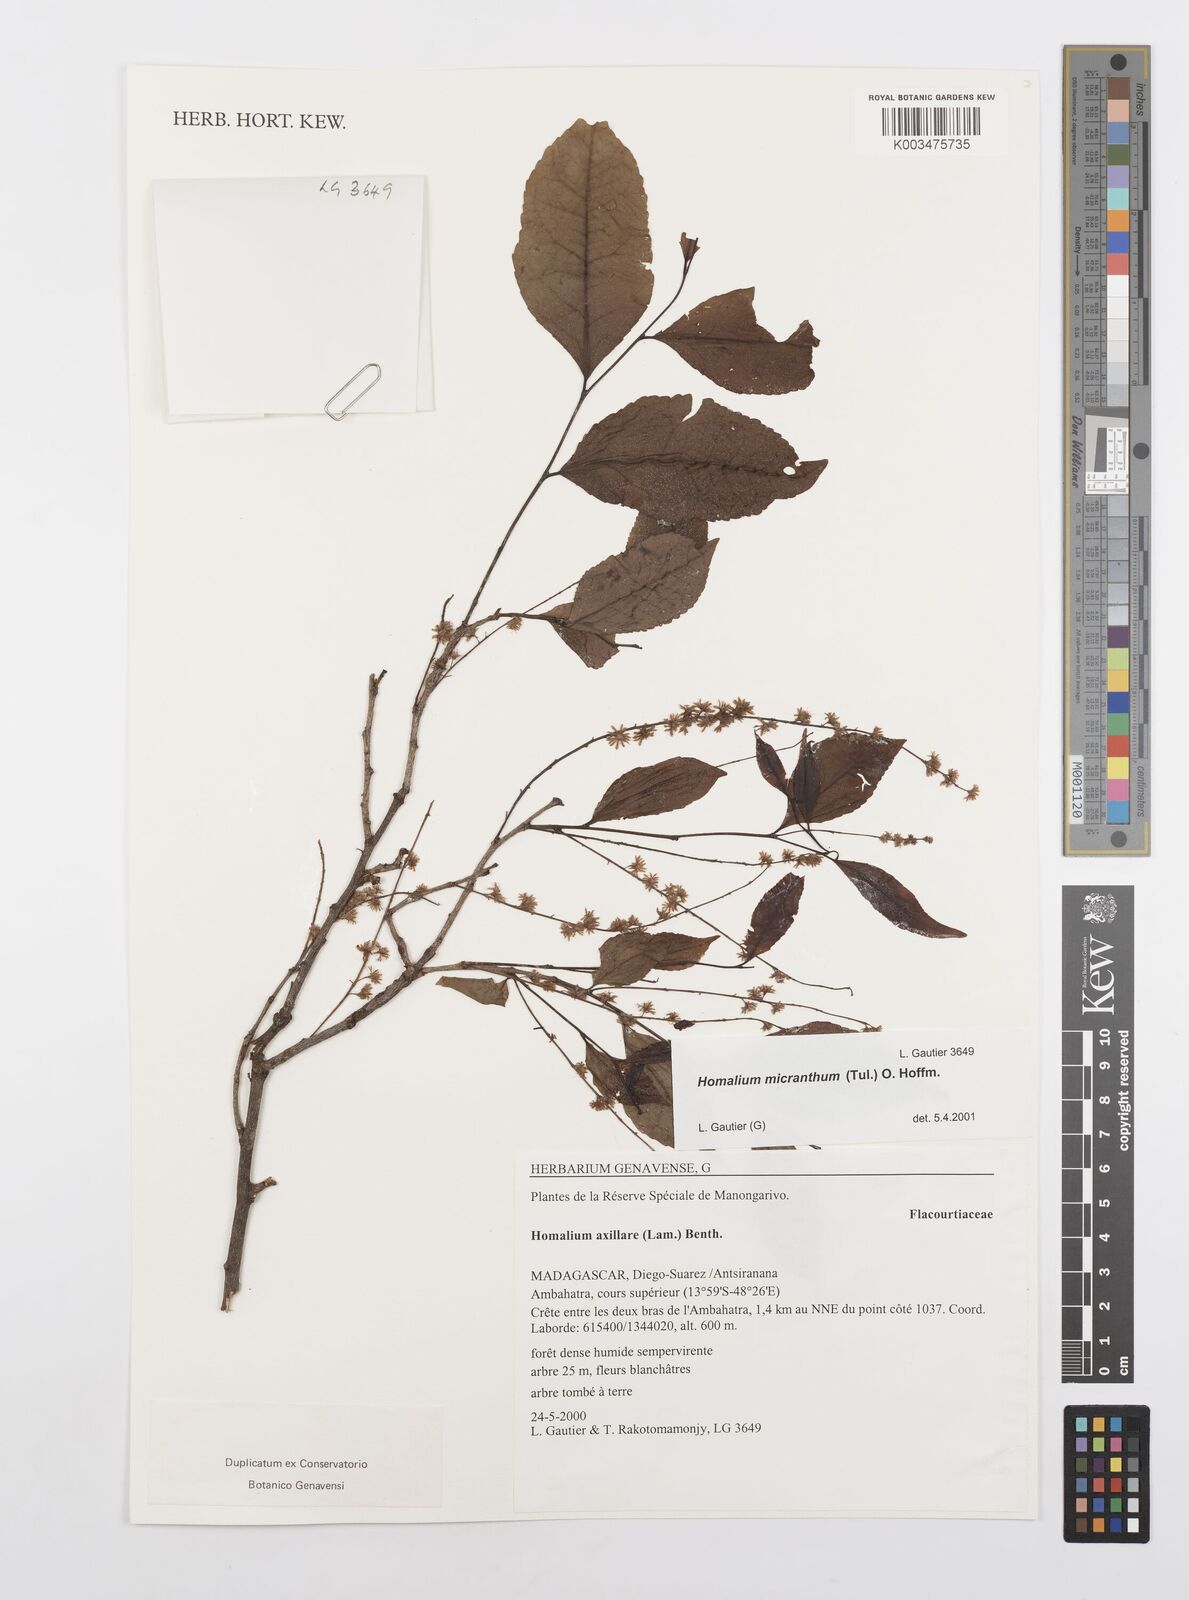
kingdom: Plantae
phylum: Tracheophyta
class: Magnoliopsida
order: Malpighiales
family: Salicaceae
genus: Homalium
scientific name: Homalium micranthum
